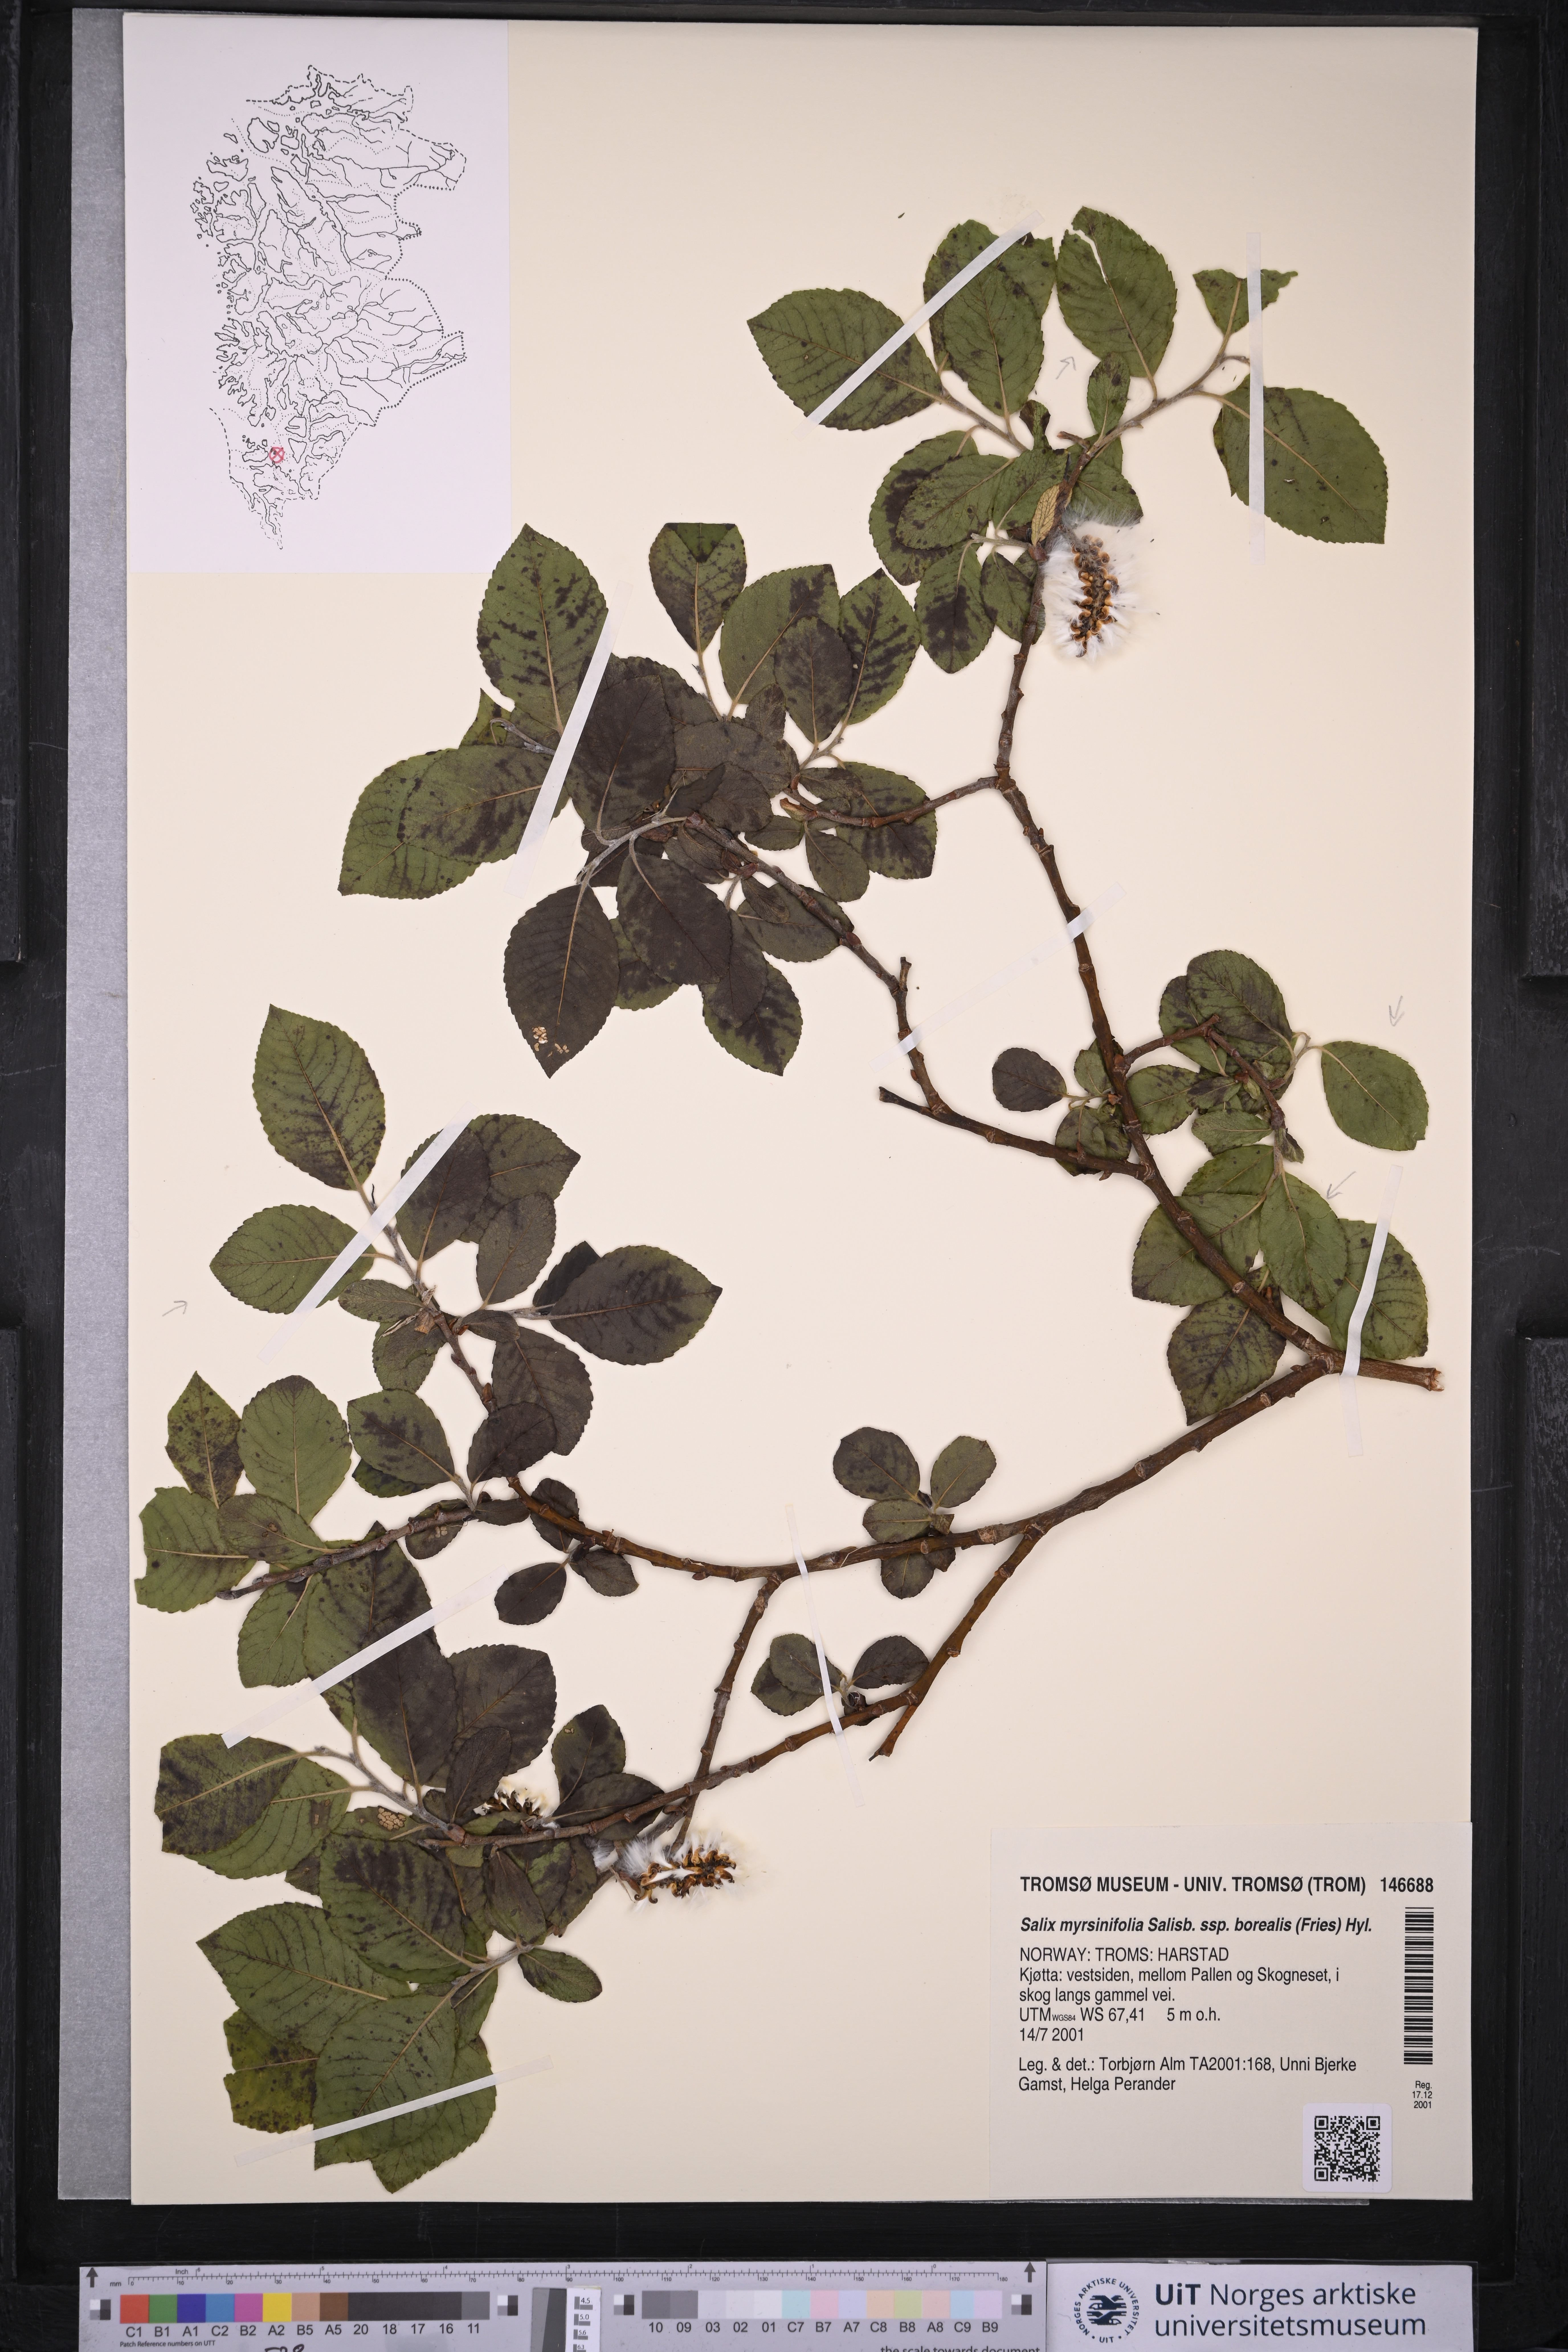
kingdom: Plantae
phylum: Tracheophyta
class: Magnoliopsida
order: Malpighiales
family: Salicaceae
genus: Salix
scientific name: Salix myrsinifolia
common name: Dark-leaved willow
